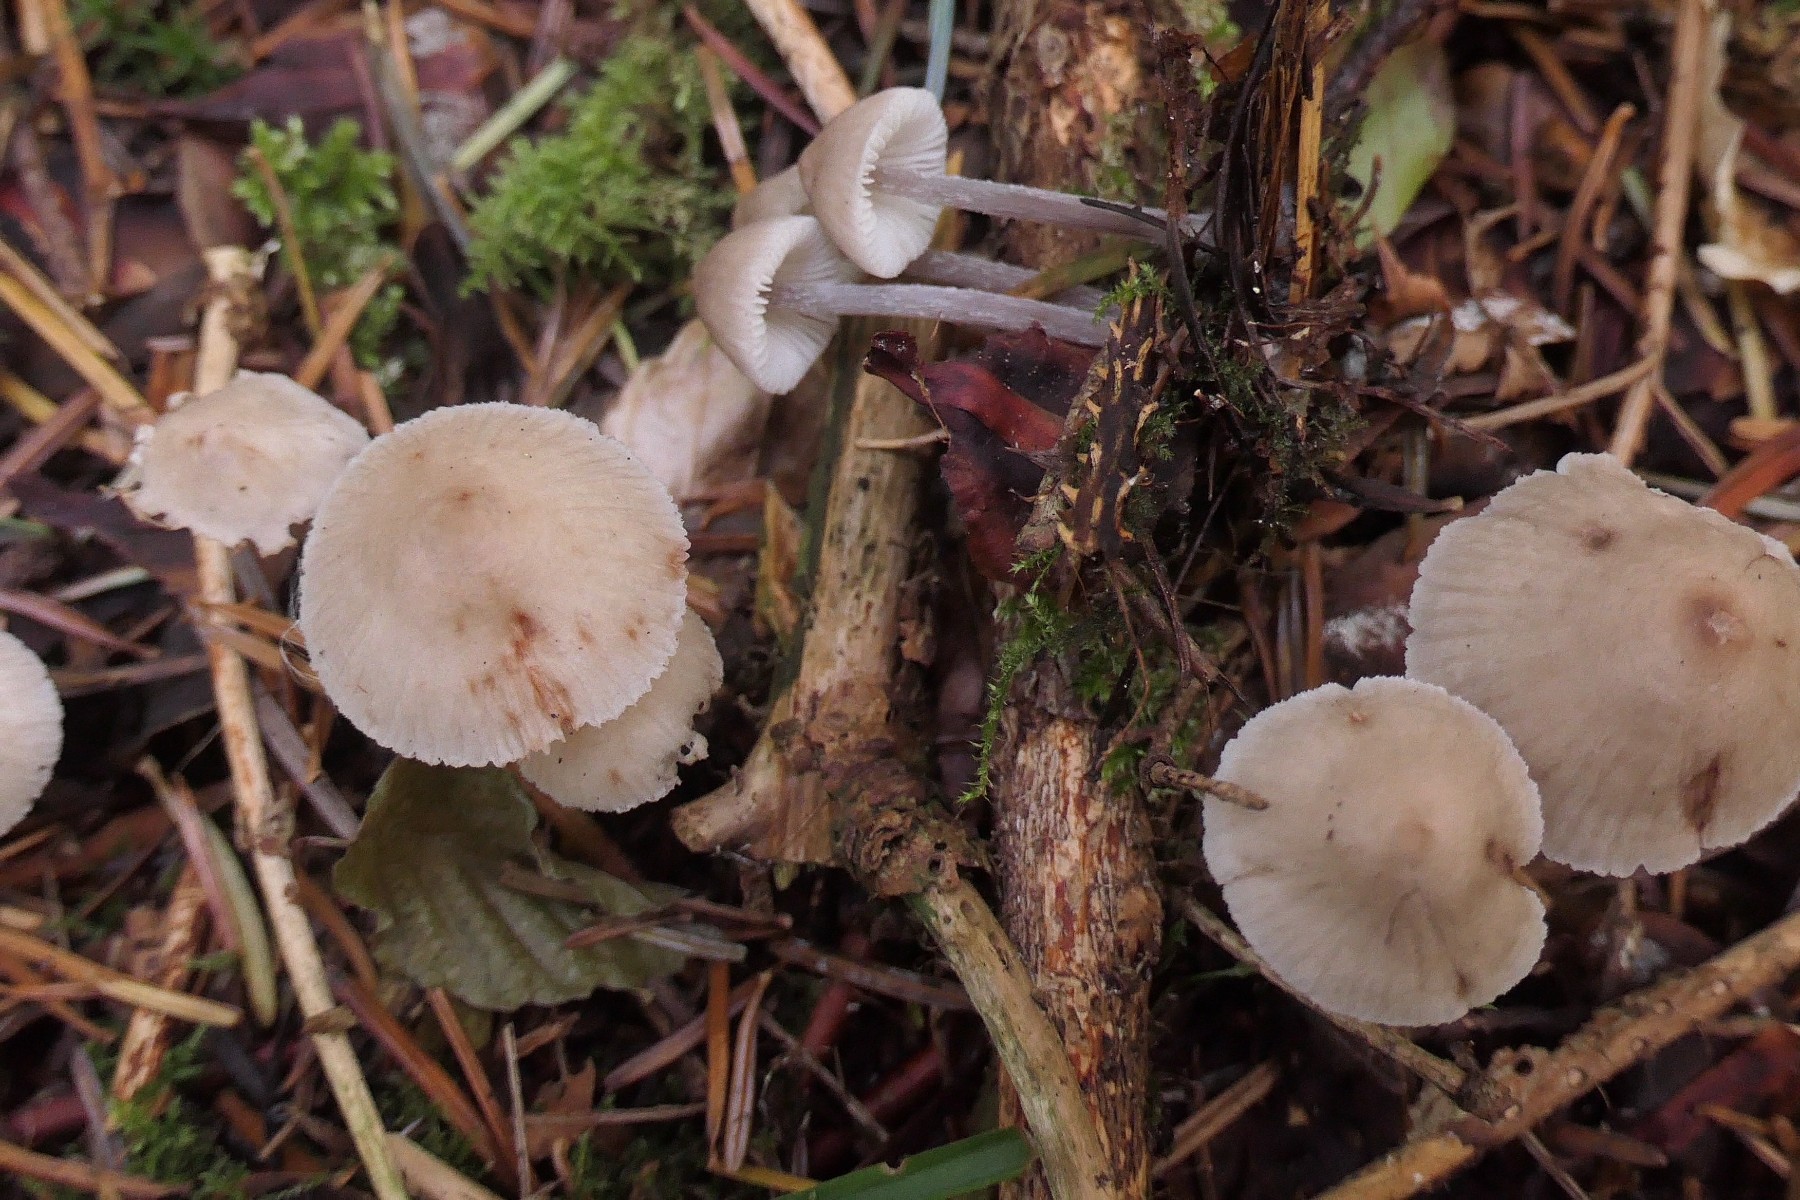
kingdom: Fungi
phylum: Basidiomycota
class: Agaricomycetes
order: Agaricales
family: Mycenaceae
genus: Mycena
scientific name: Mycena zephirus
